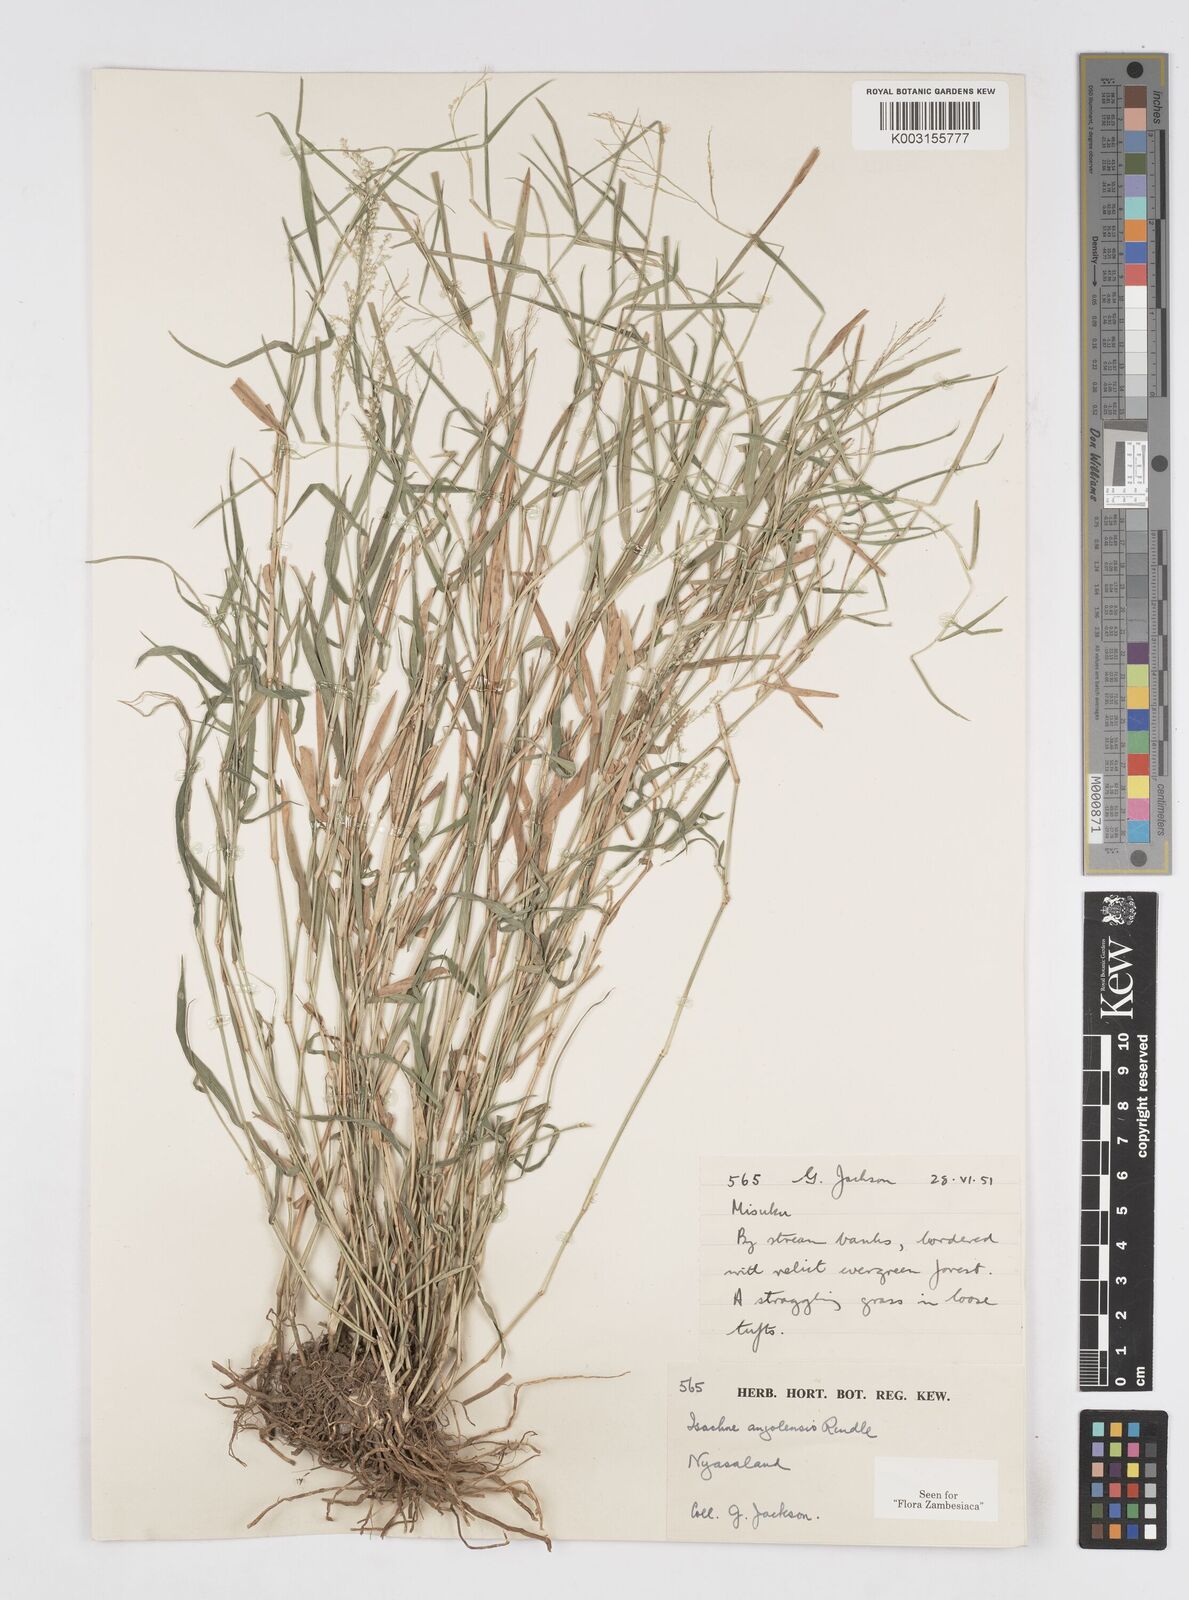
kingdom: Plantae
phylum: Tracheophyta
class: Liliopsida
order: Poales
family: Poaceae
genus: Isachne
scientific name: Isachne angolensis
